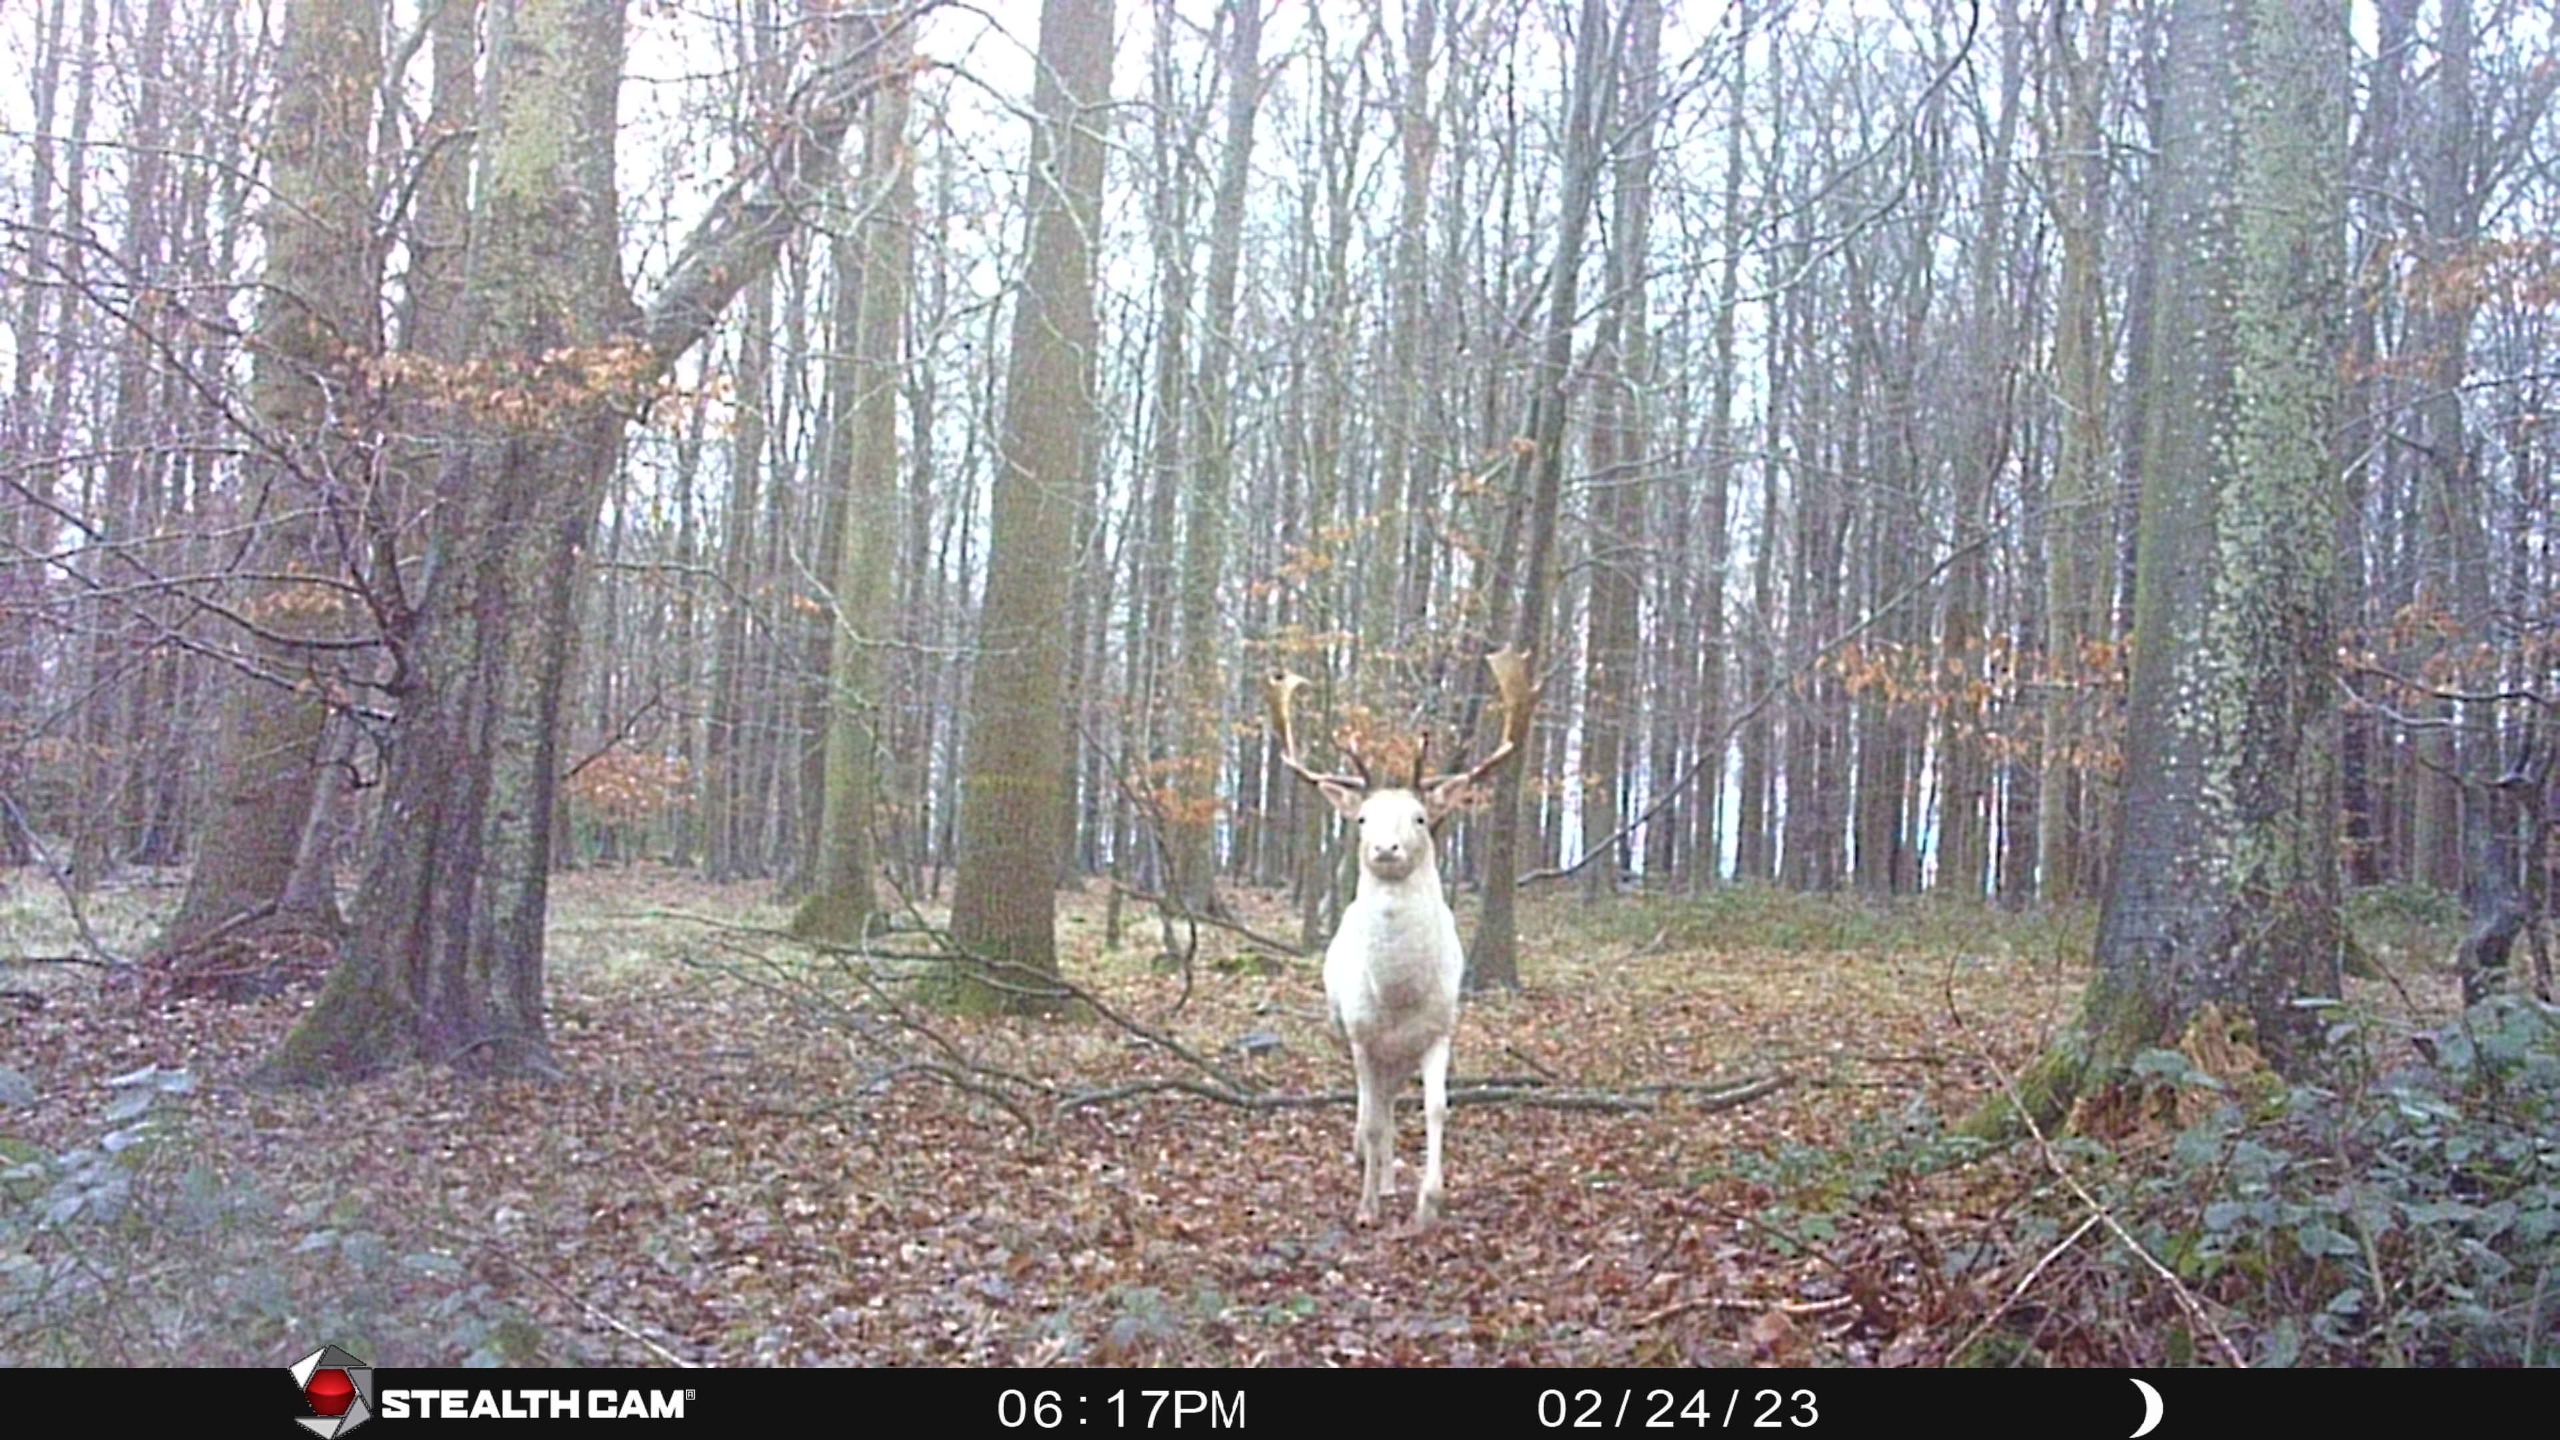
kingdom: Animalia
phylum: Chordata
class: Mammalia
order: Artiodactyla
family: Cervidae
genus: Dama
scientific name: Dama dama
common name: Dådyr
